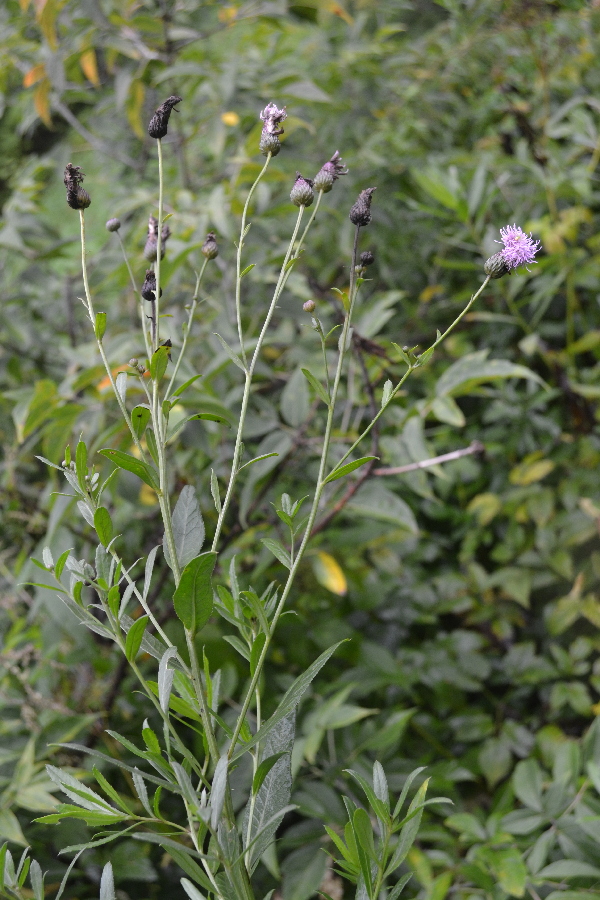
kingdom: Plantae
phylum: Tracheophyta
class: Magnoliopsida
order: Asterales
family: Asteraceae
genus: Cirsium
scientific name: Cirsium arvense
